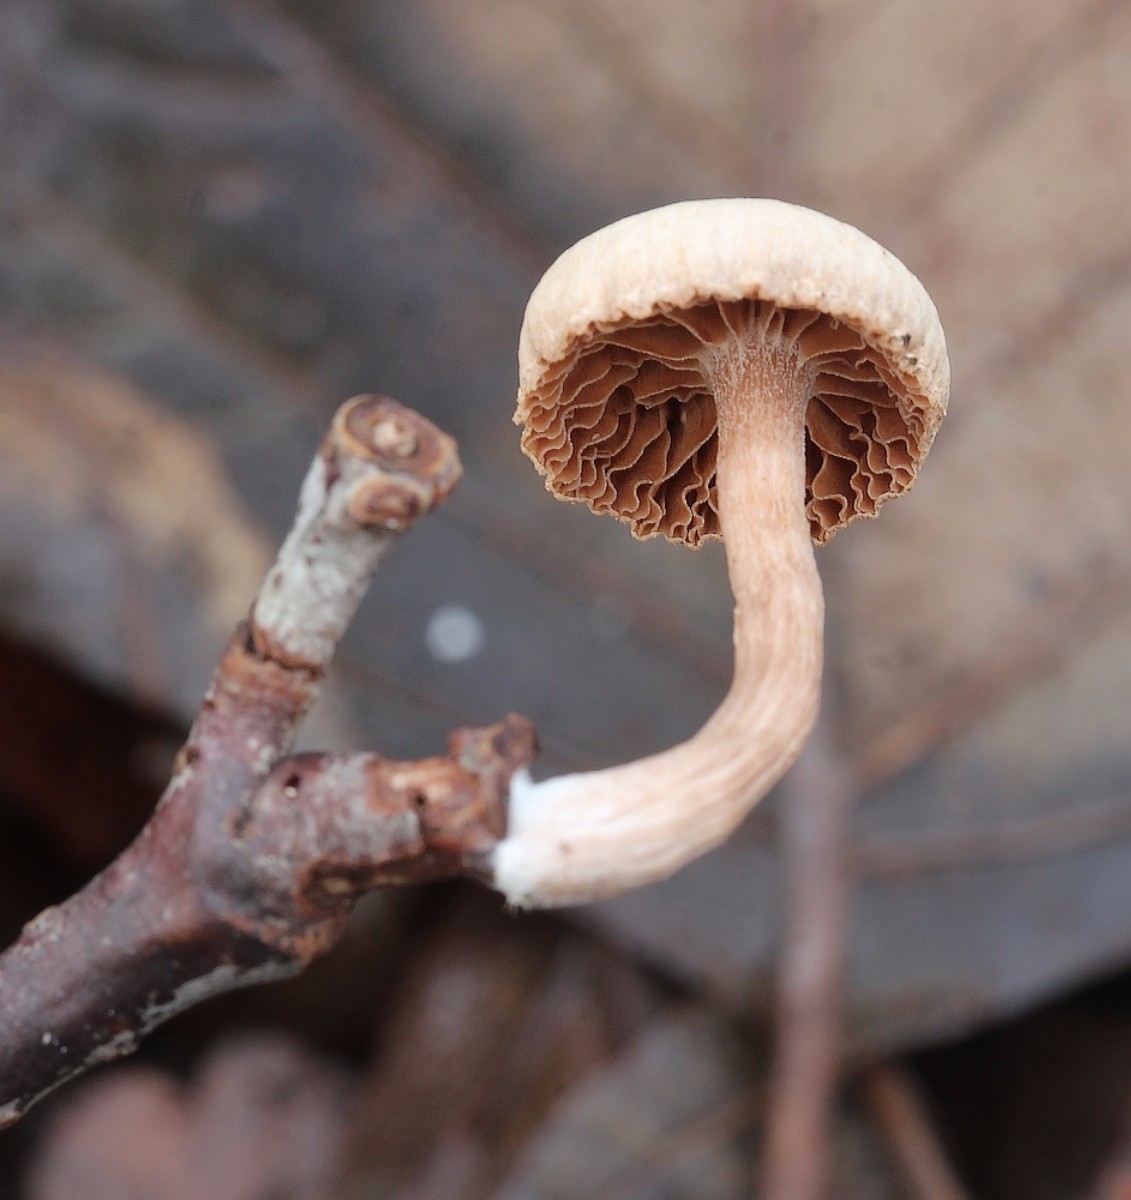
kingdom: Fungi
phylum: Basidiomycota
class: Agaricomycetes
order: Agaricales
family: Tubariaceae
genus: Tubaria
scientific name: Tubaria furfuracea
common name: kliddet fnughat
